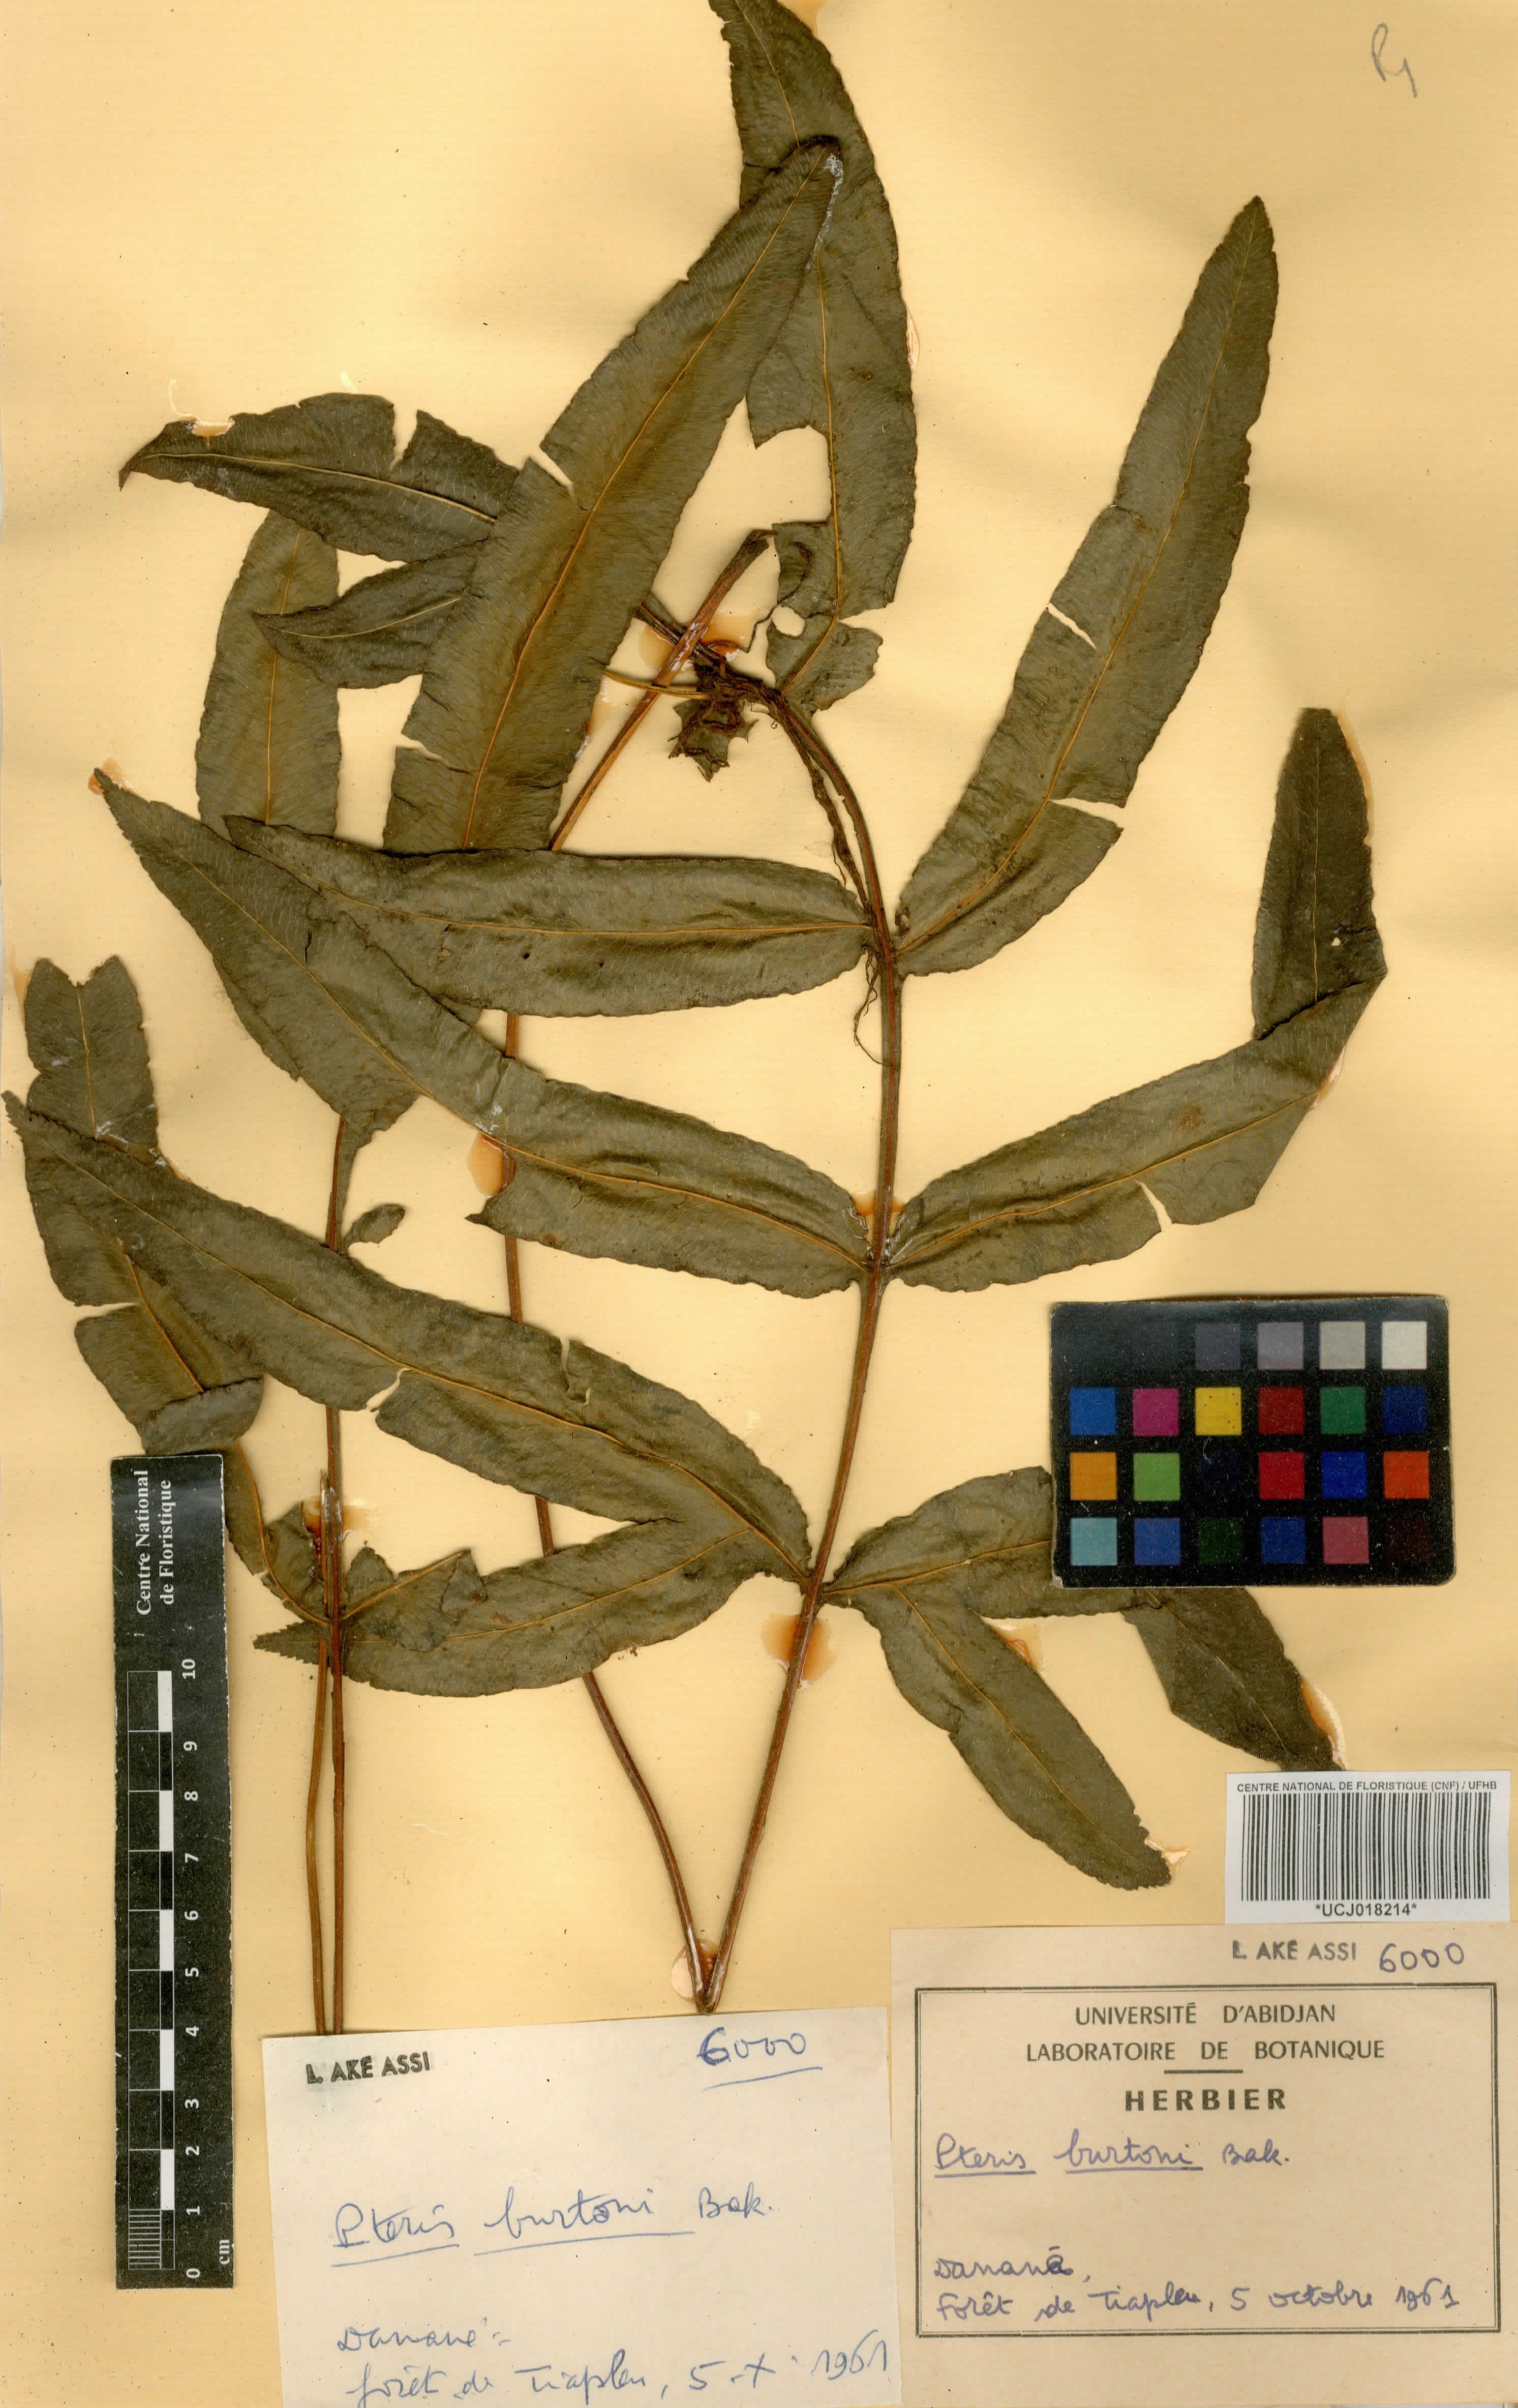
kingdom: Plantae
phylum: Tracheophyta
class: Polypodiopsida
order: Polypodiales
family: Pteridaceae
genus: Pteris
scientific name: Pteris burtonii
